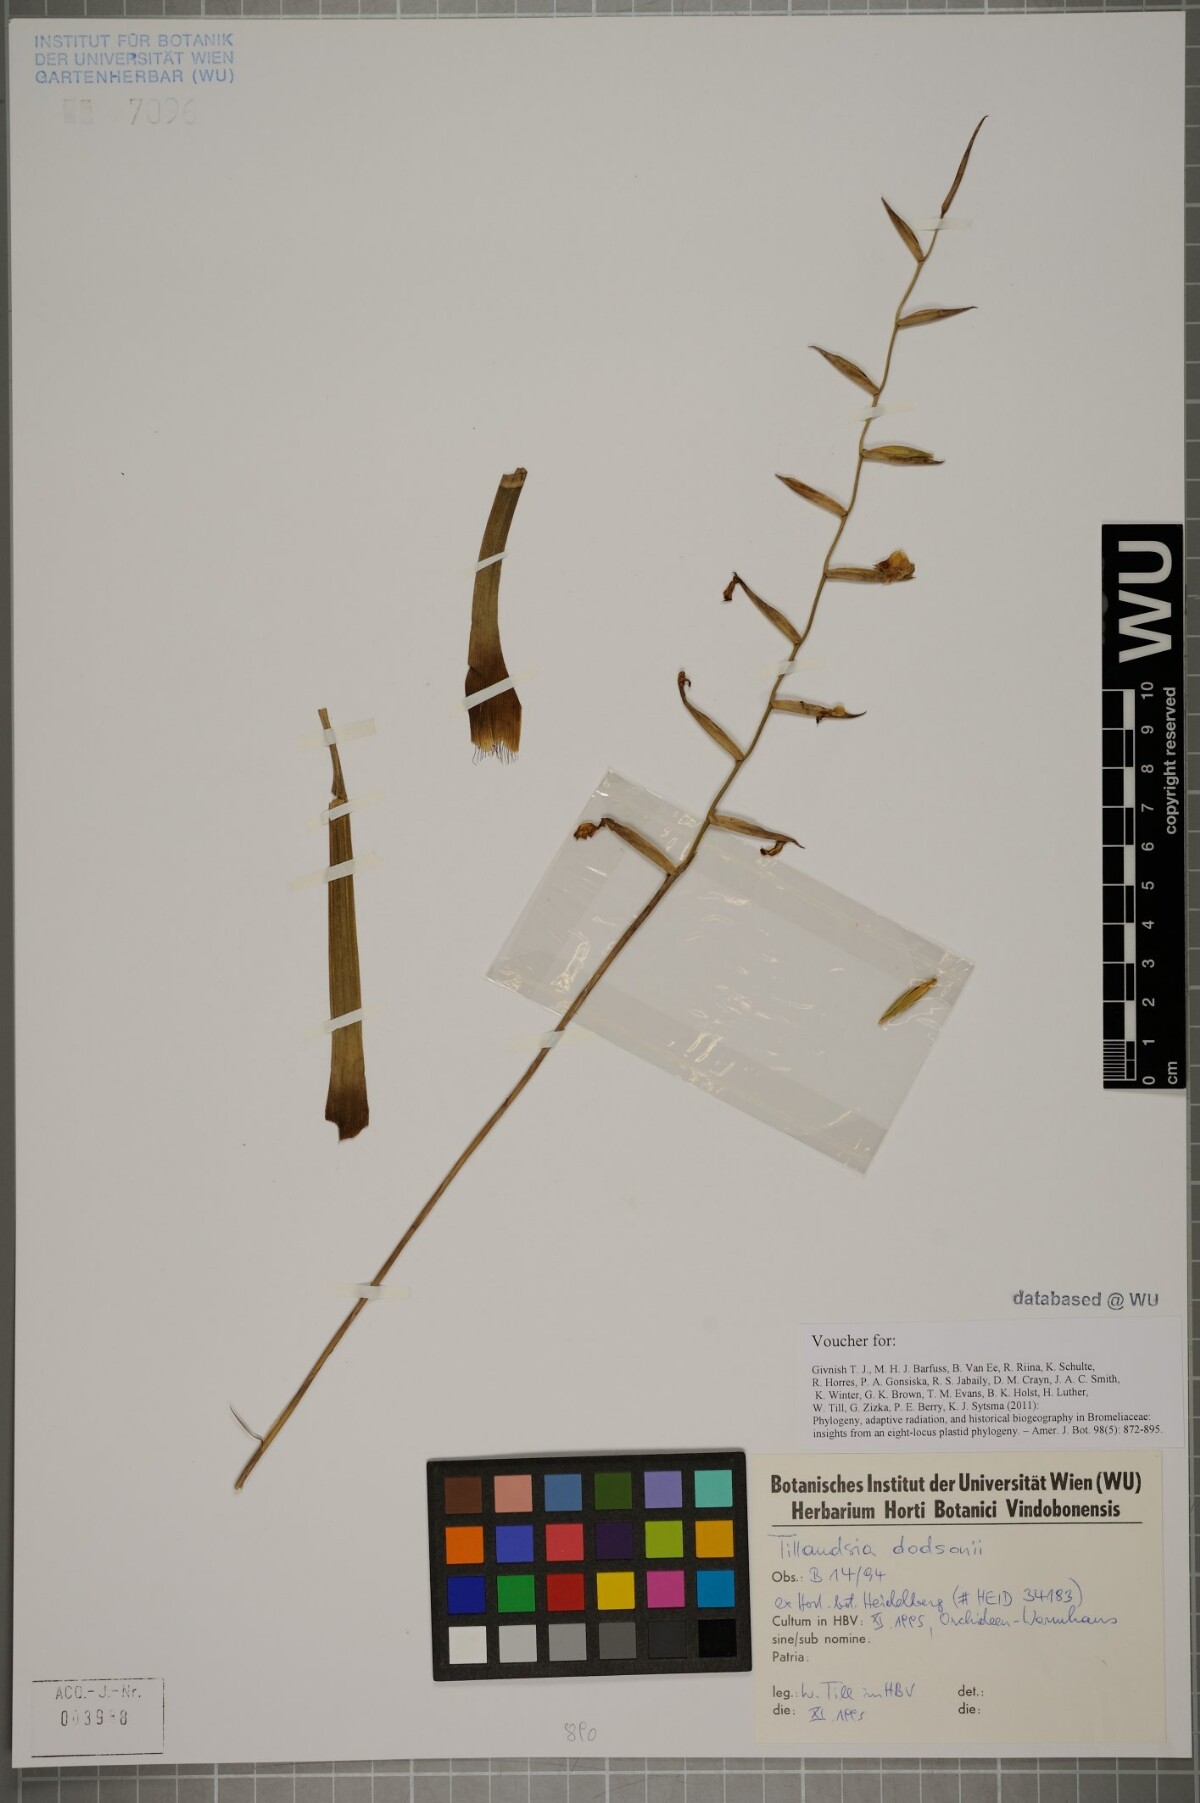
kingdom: Plantae
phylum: Tracheophyta
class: Liliopsida
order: Poales
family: Bromeliaceae
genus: Lemeltonia
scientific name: Lemeltonia dodsonii
